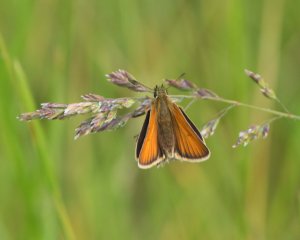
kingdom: Animalia
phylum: Arthropoda
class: Insecta
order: Lepidoptera
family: Hesperiidae
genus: Thymelicus
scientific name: Thymelicus lineola
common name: European Skipper
